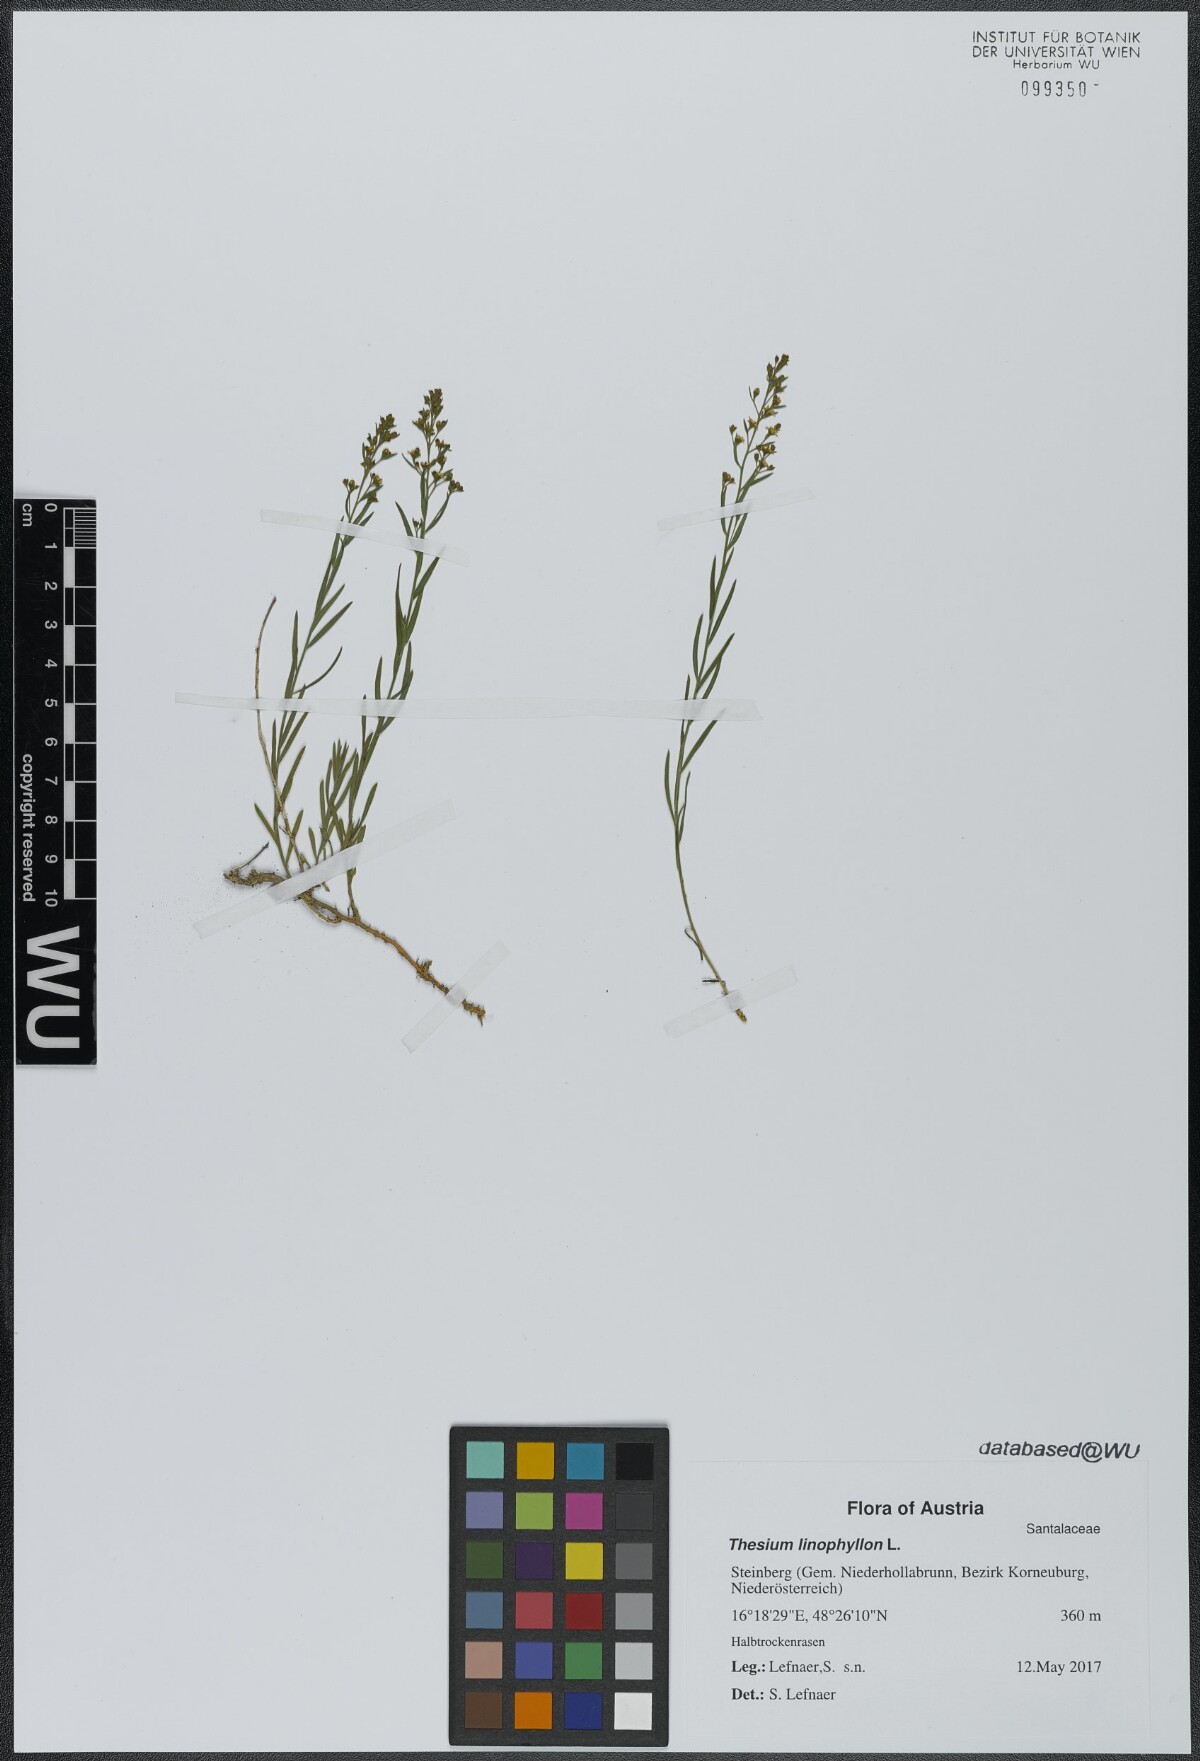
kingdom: Plantae
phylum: Tracheophyta
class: Magnoliopsida
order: Santalales
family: Thesiaceae
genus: Thesium
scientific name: Thesium linophyllon
